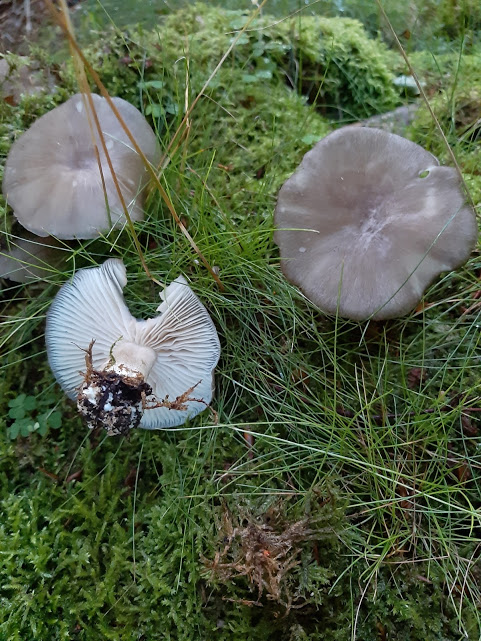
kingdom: Fungi
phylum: Basidiomycota
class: Agaricomycetes
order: Agaricales
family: Tricholomataceae
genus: Megacollybia
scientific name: Megacollybia platyphylla
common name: bredbladet væbnerhat
